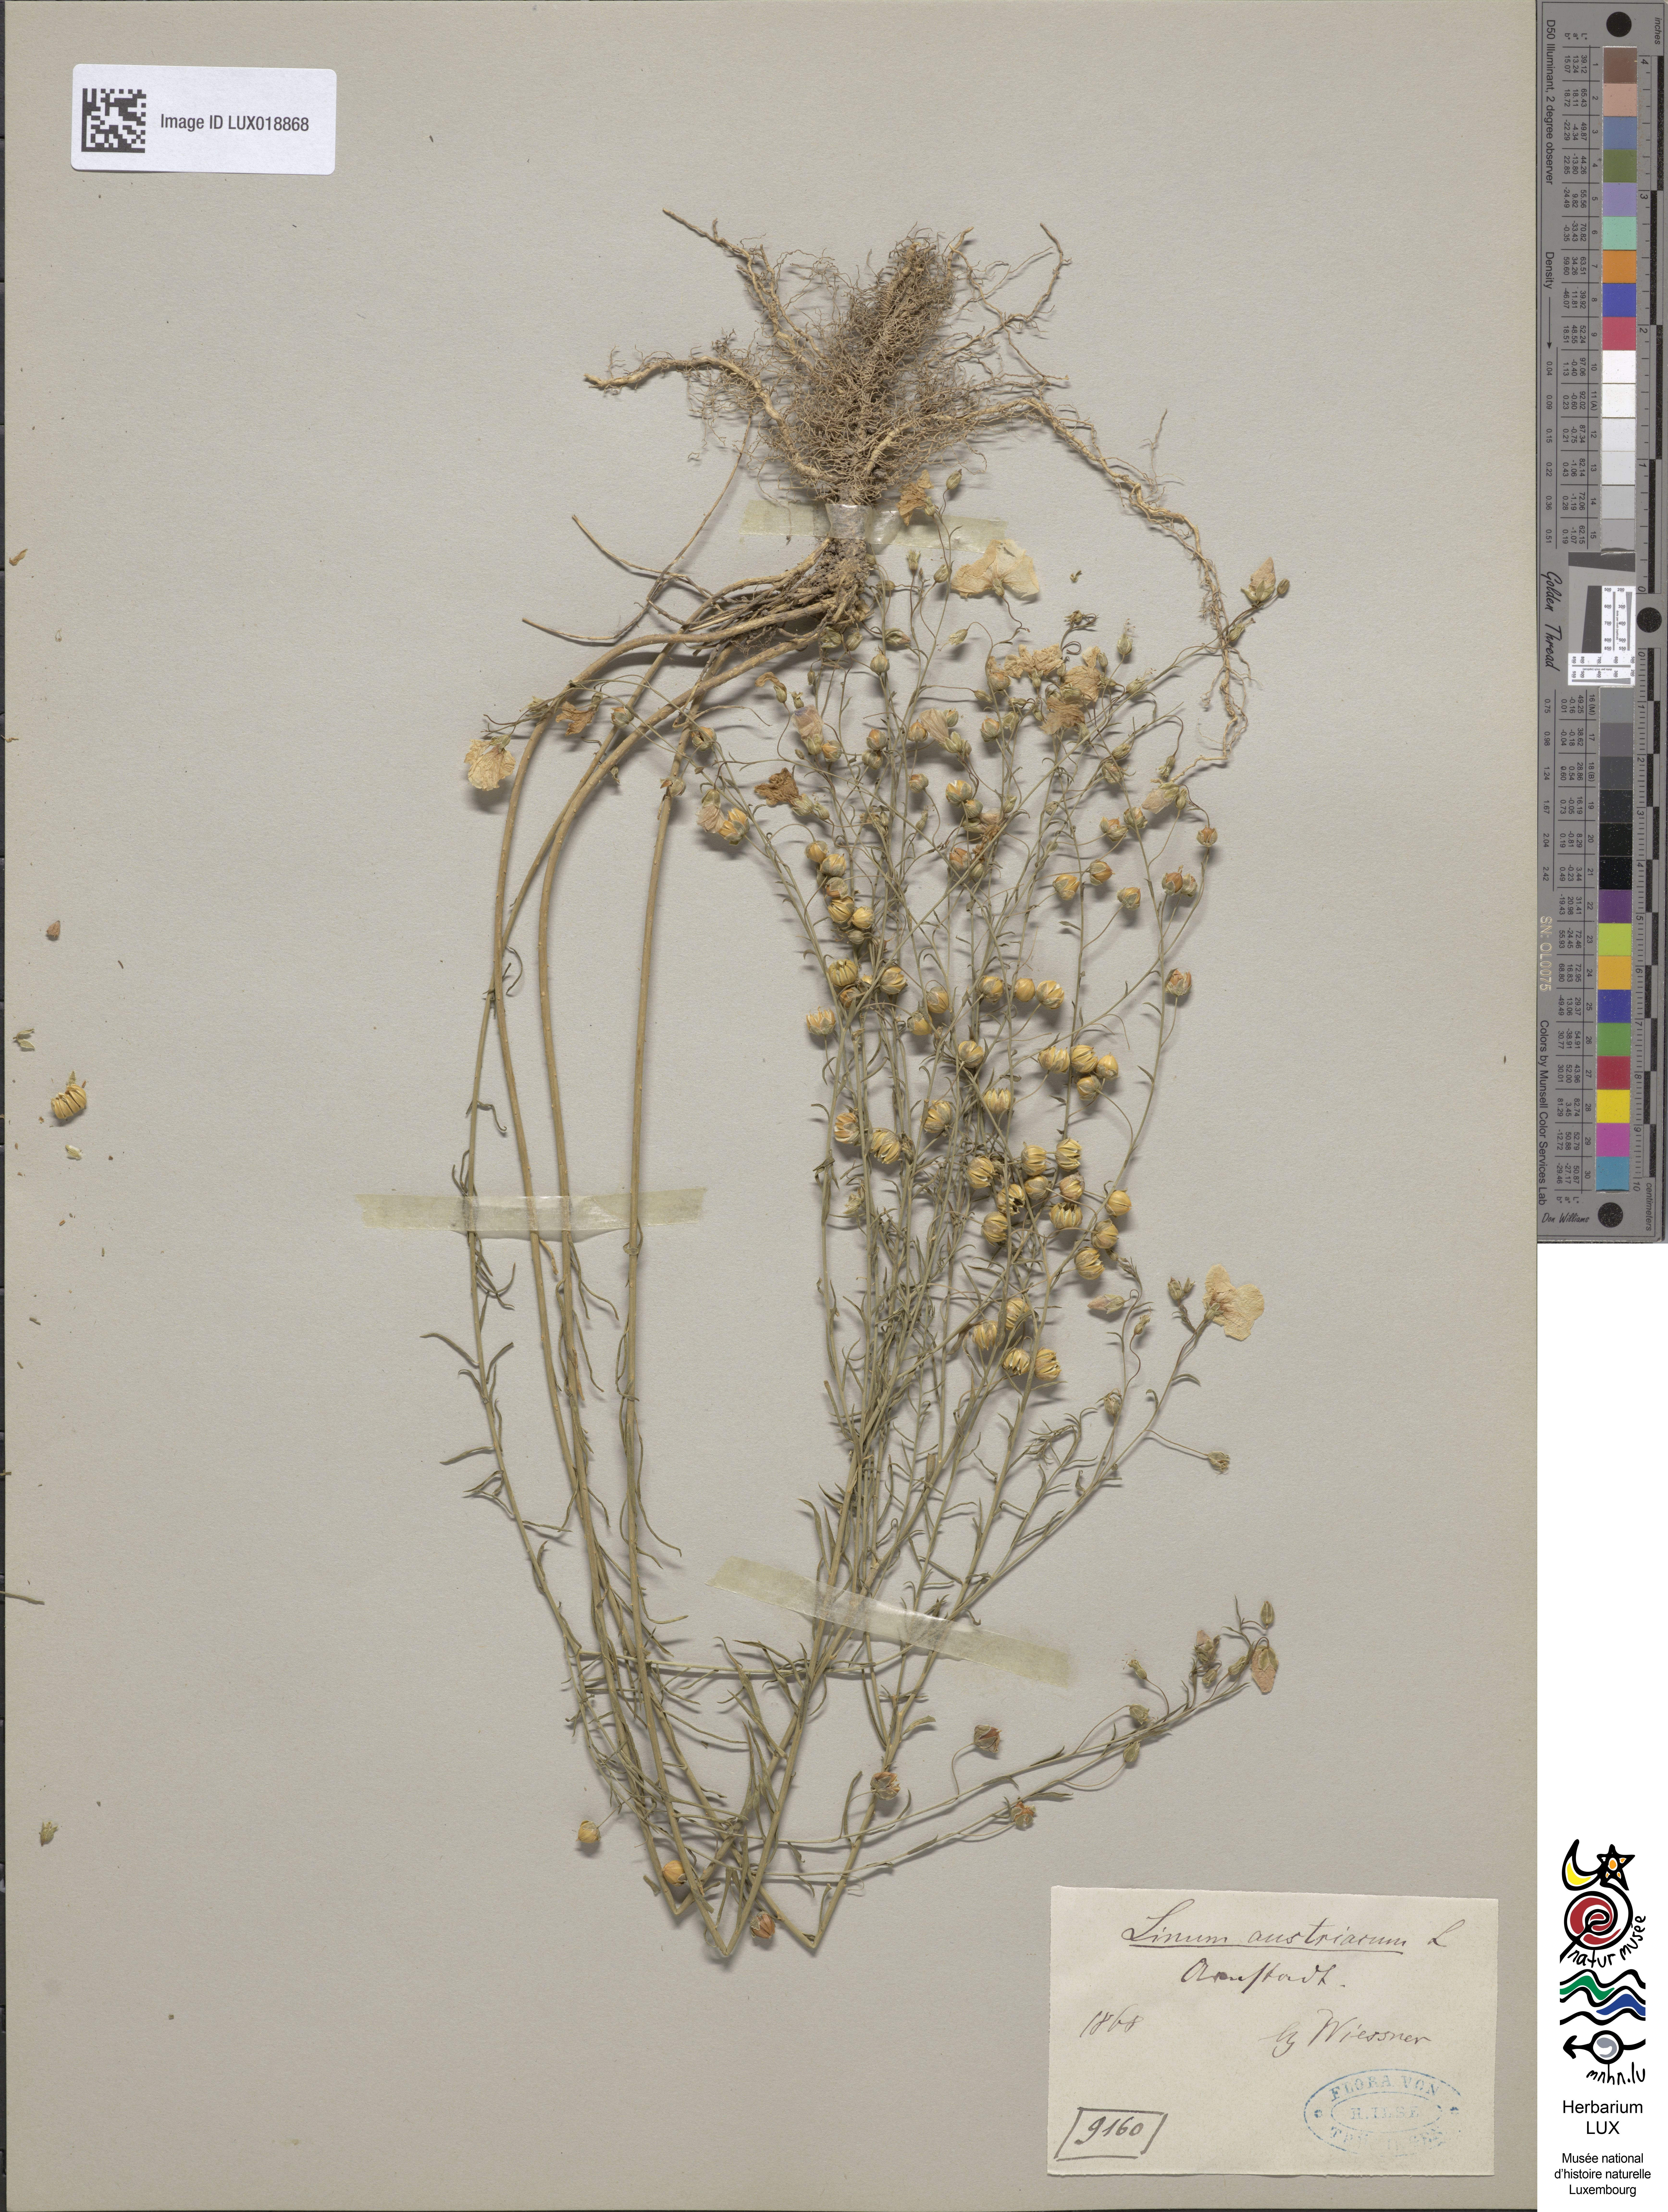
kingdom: Plantae
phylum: Tracheophyta
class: Magnoliopsida
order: Malpighiales
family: Linaceae
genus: Linum
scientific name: Linum austriacum
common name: Austrian flax
